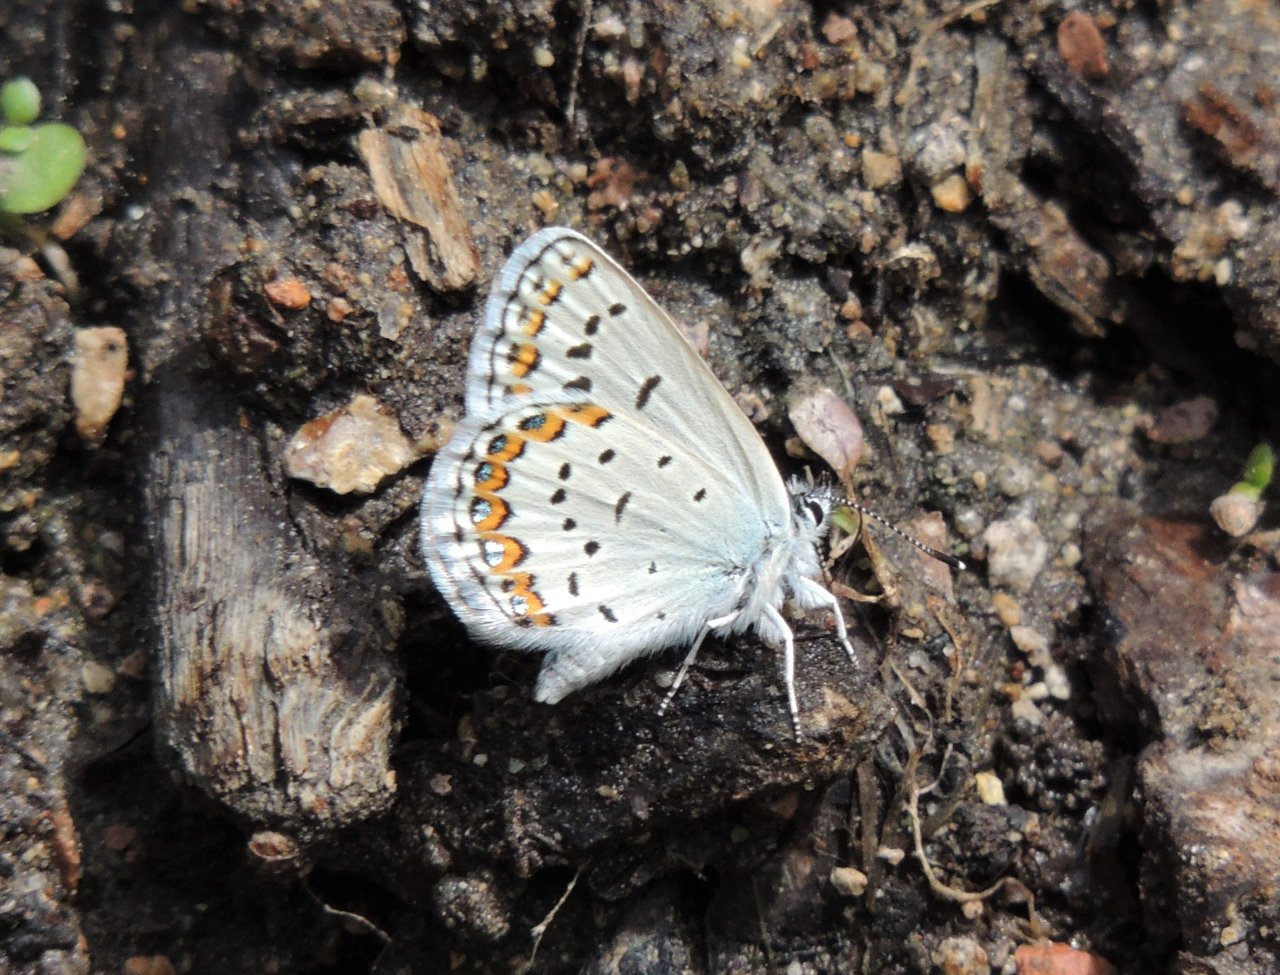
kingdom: Animalia
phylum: Arthropoda
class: Insecta
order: Lepidoptera
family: Lycaenidae
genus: Lycaeides
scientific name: Lycaeides melissa
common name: Melissa Blue
